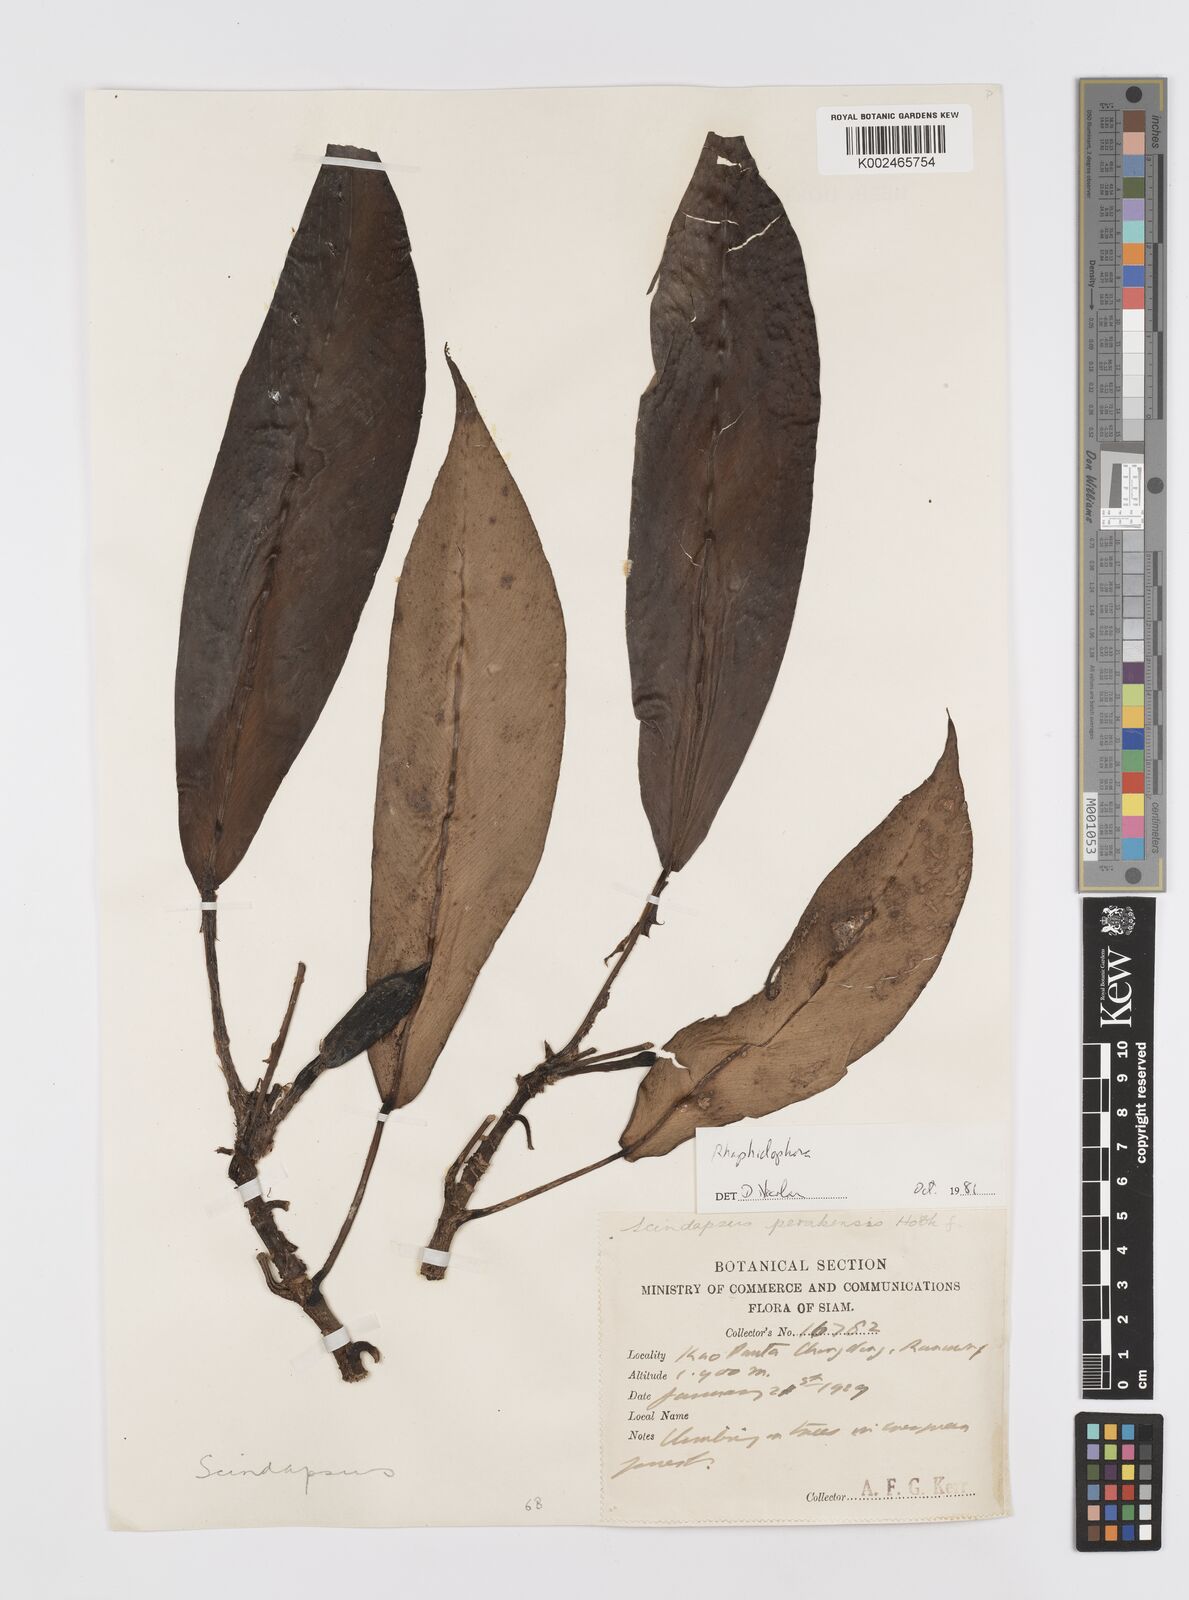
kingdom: Plantae
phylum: Tracheophyta
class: Liliopsida
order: Alismatales
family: Araceae
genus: Rhaphidophora
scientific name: Rhaphidophora
